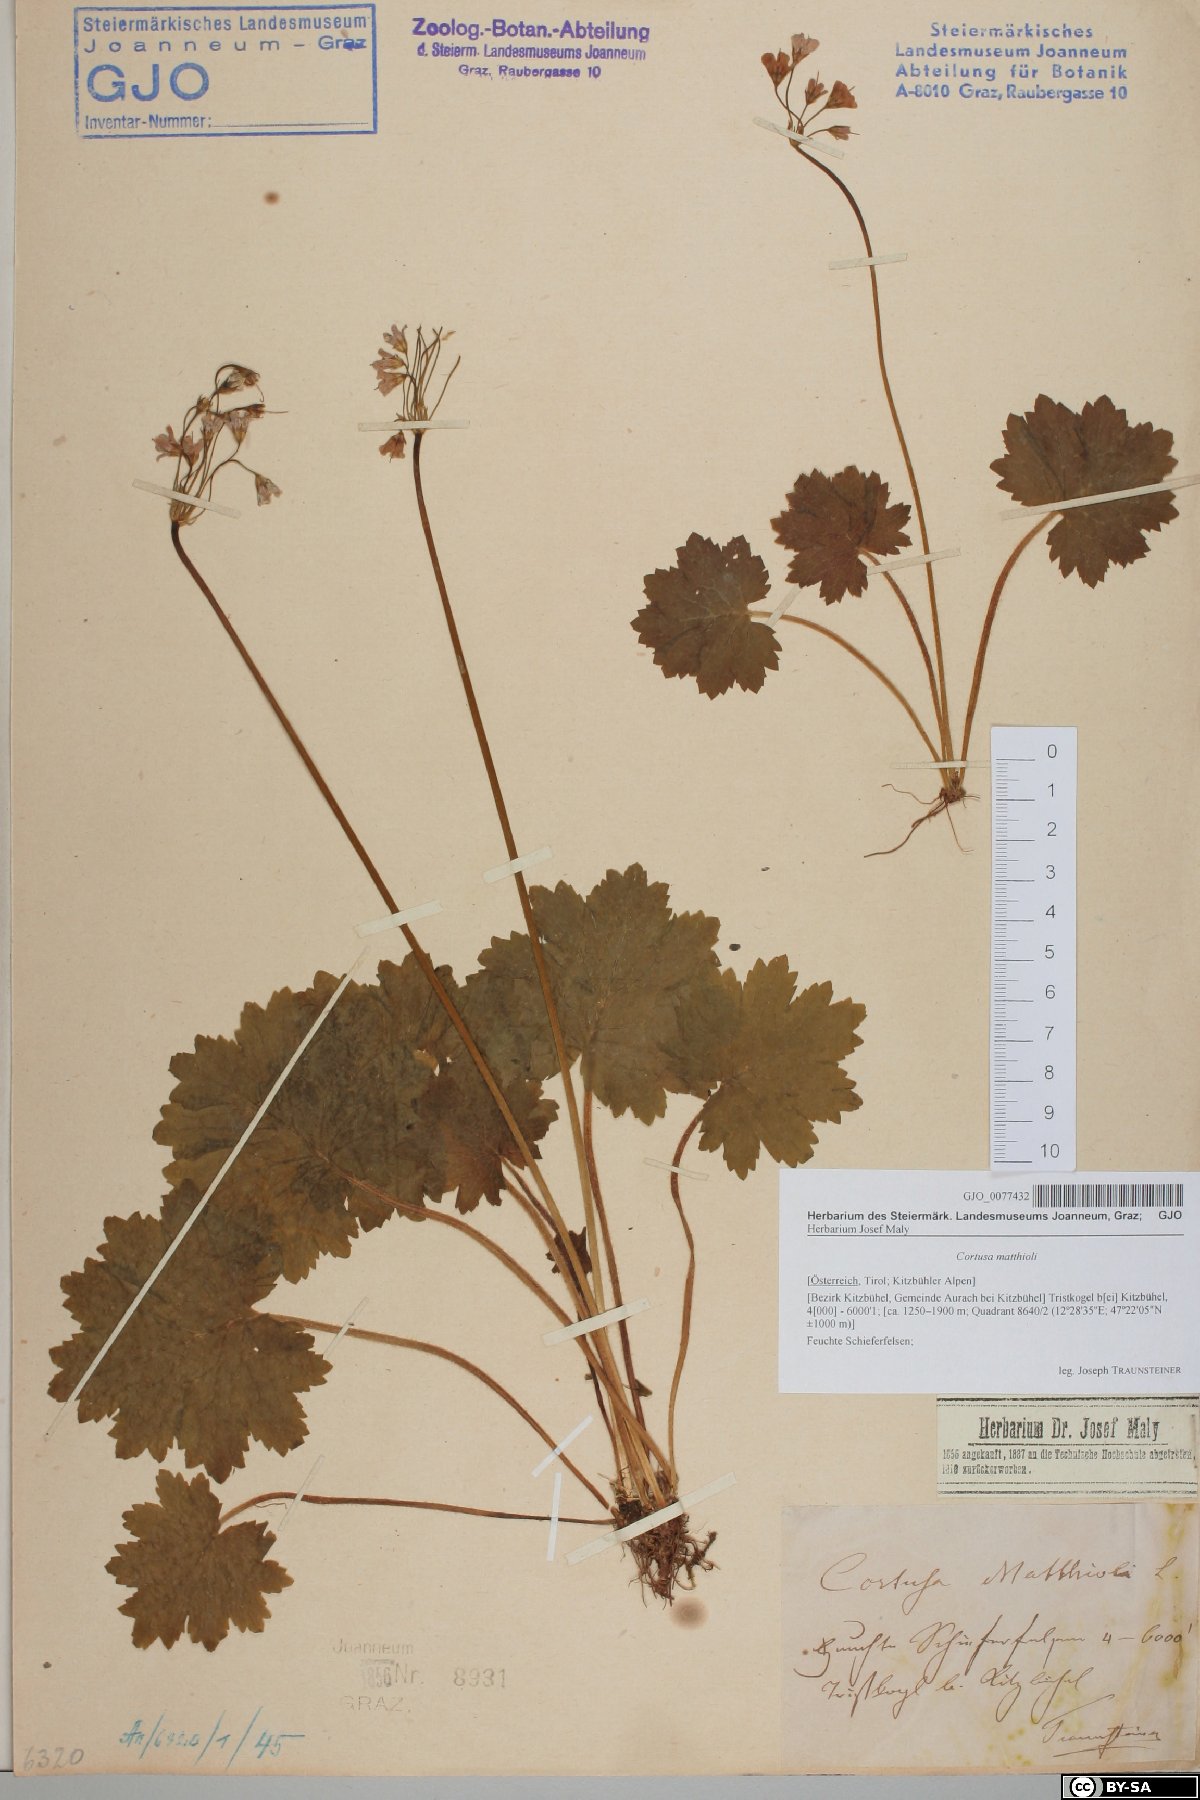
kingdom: Plantae
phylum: Tracheophyta
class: Magnoliopsida
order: Ericales
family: Primulaceae
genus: Primula
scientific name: Primula matthioli
